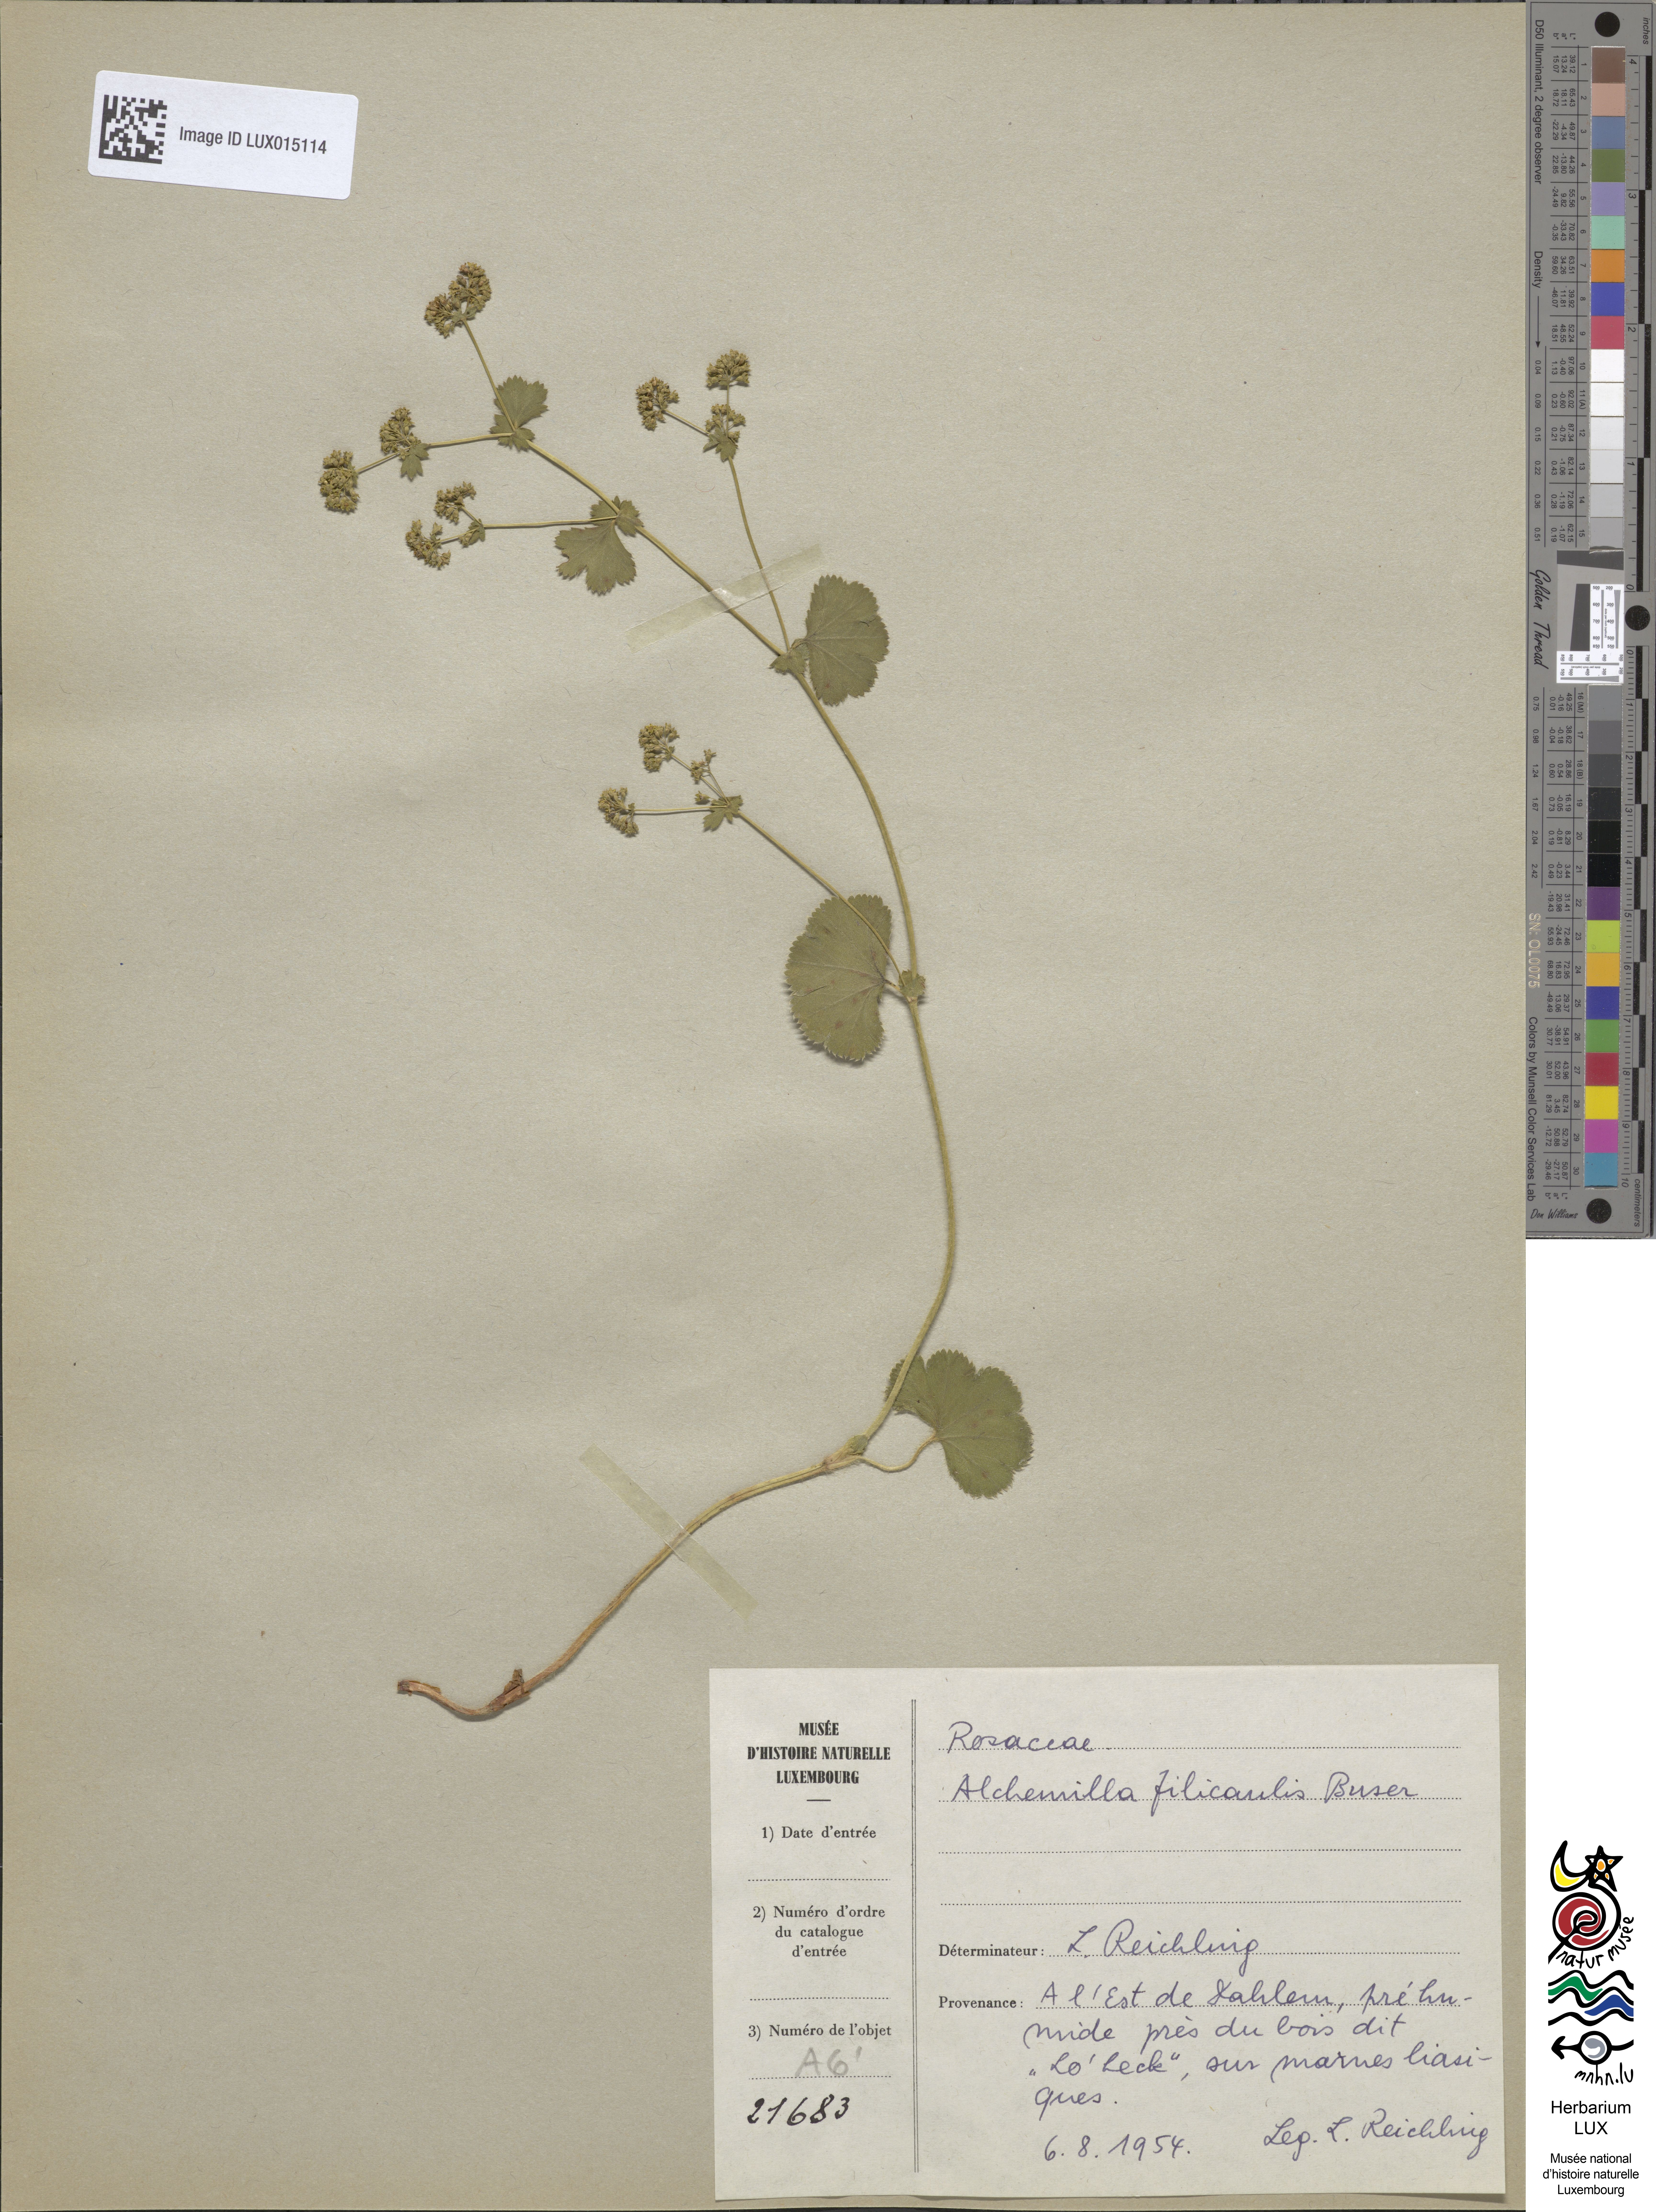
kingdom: Plantae
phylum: Tracheophyta
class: Magnoliopsida
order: Rosales
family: Rosaceae
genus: Alchemilla
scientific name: Alchemilla filicaulis
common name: Hairy lady's-mantle
